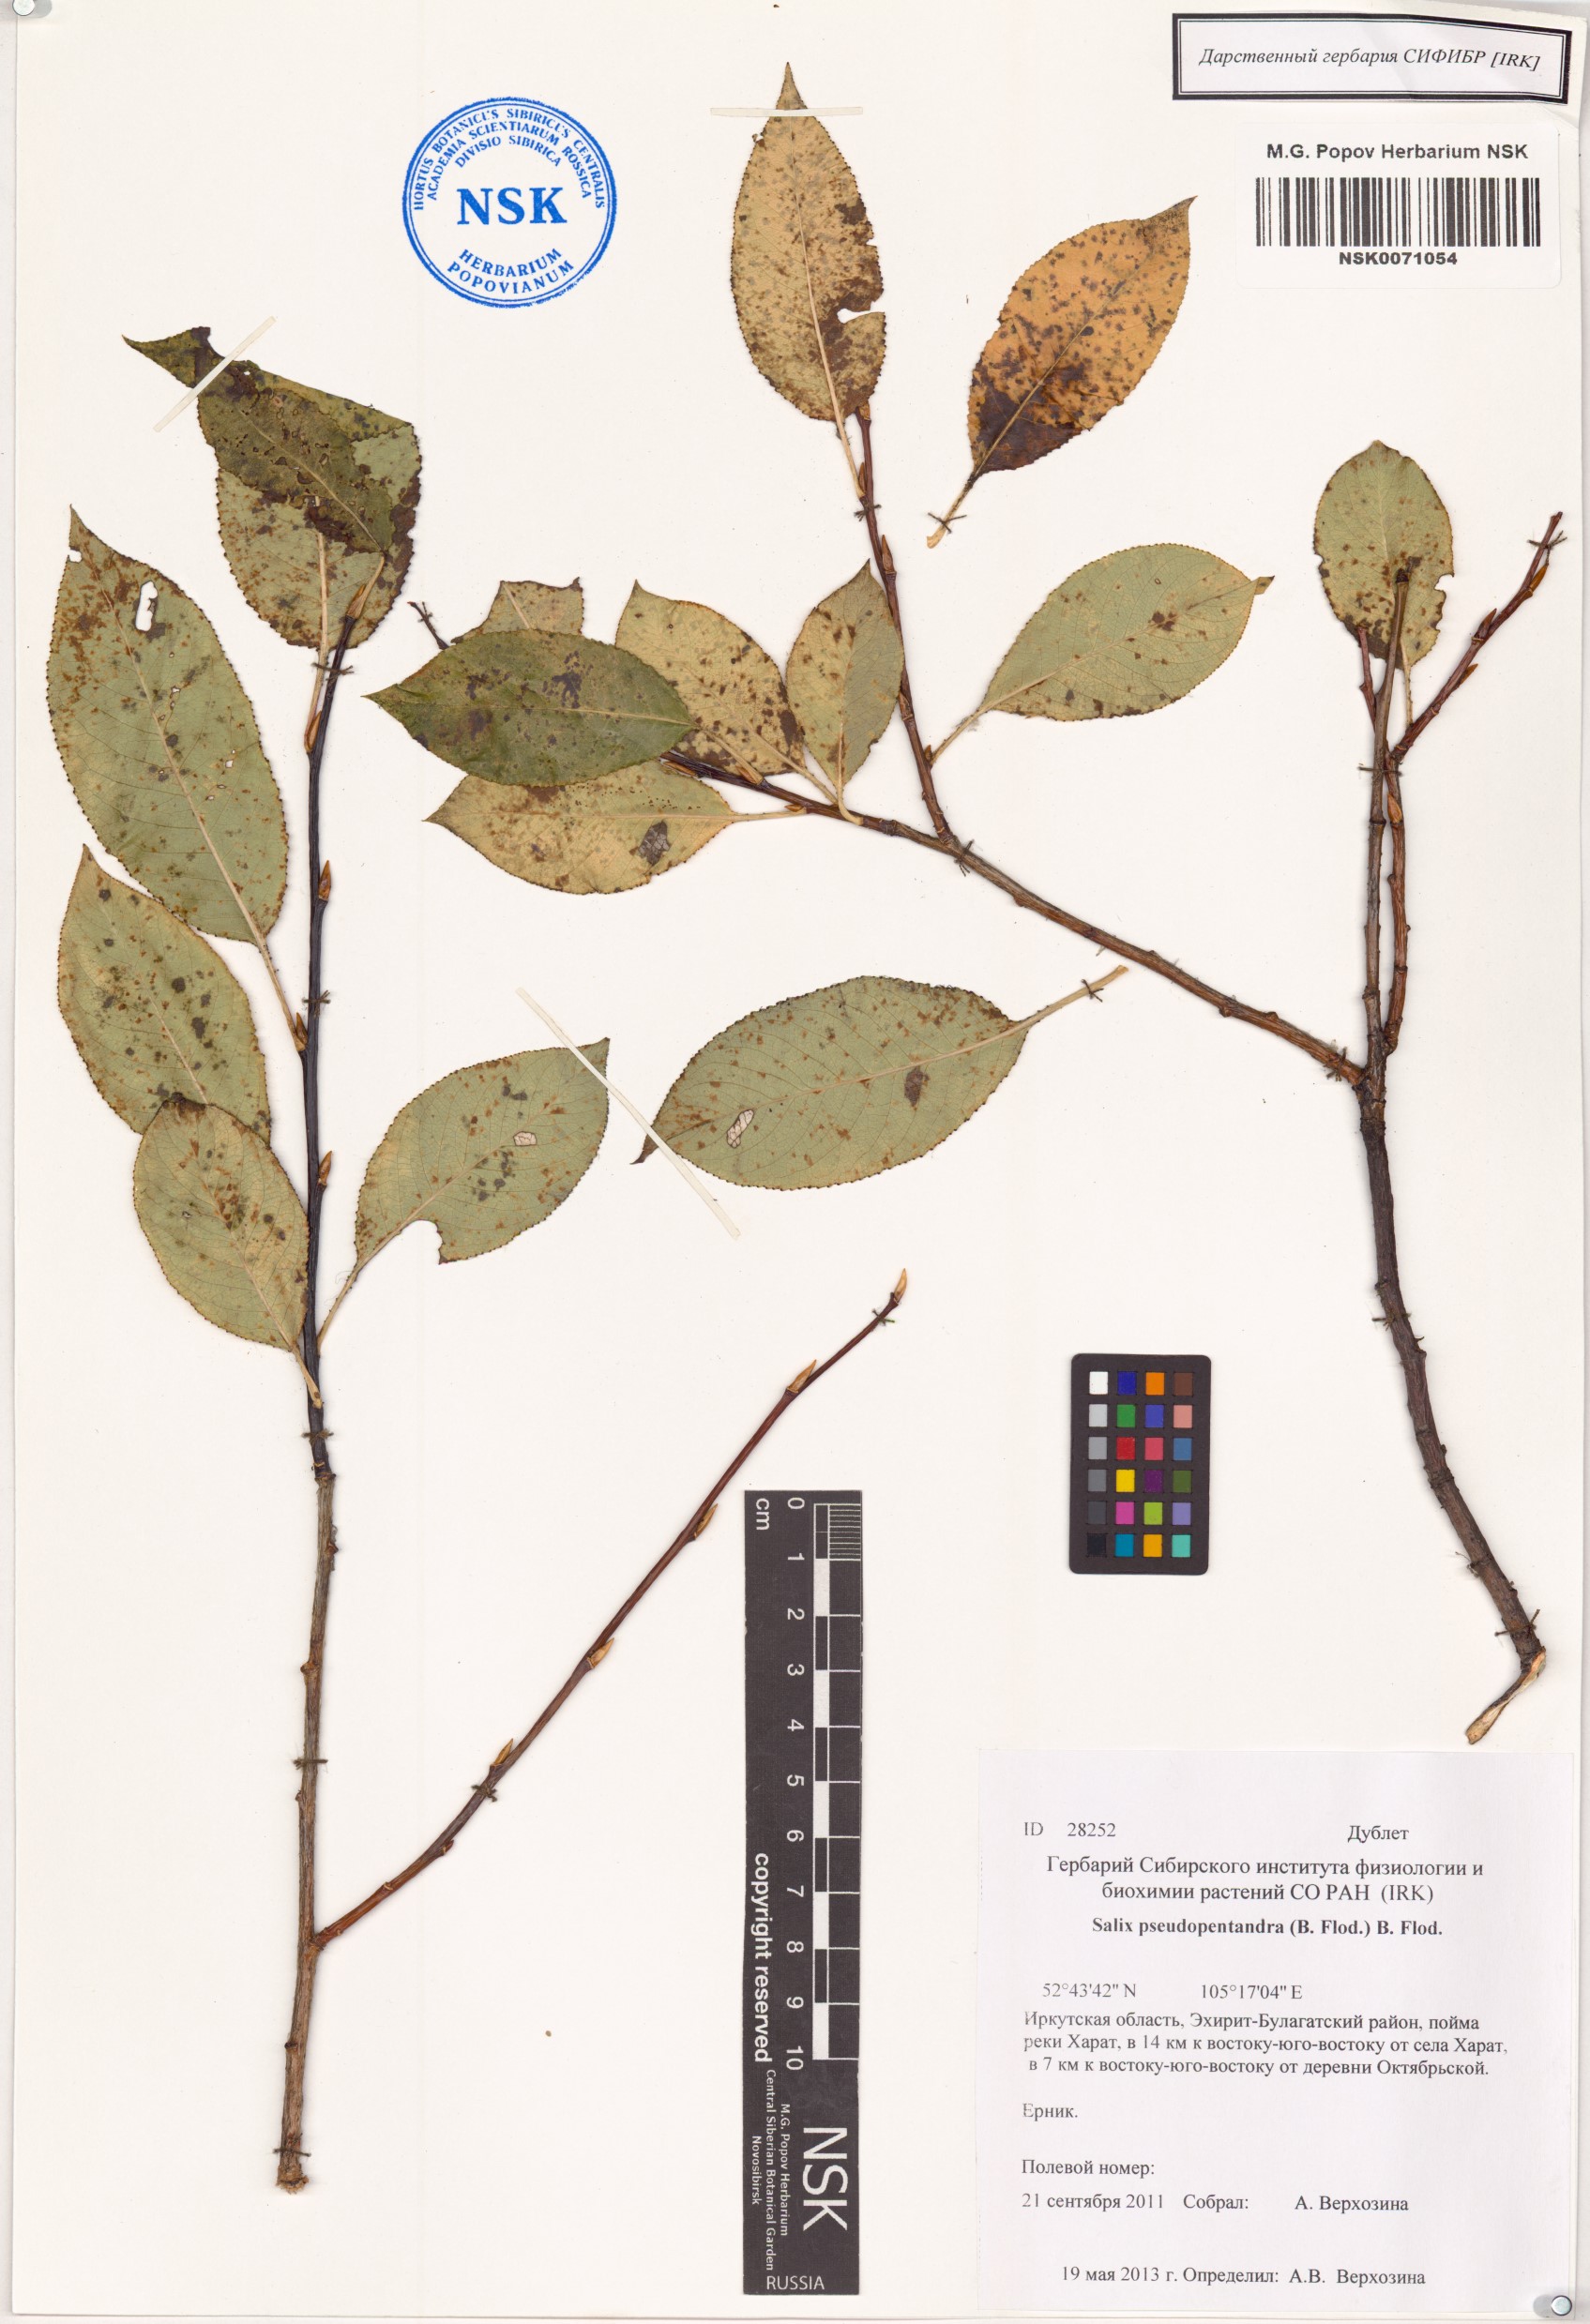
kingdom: Plantae
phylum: Tracheophyta
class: Magnoliopsida
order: Malpighiales
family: Salicaceae
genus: Salix
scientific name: Salix pseudopentandra
